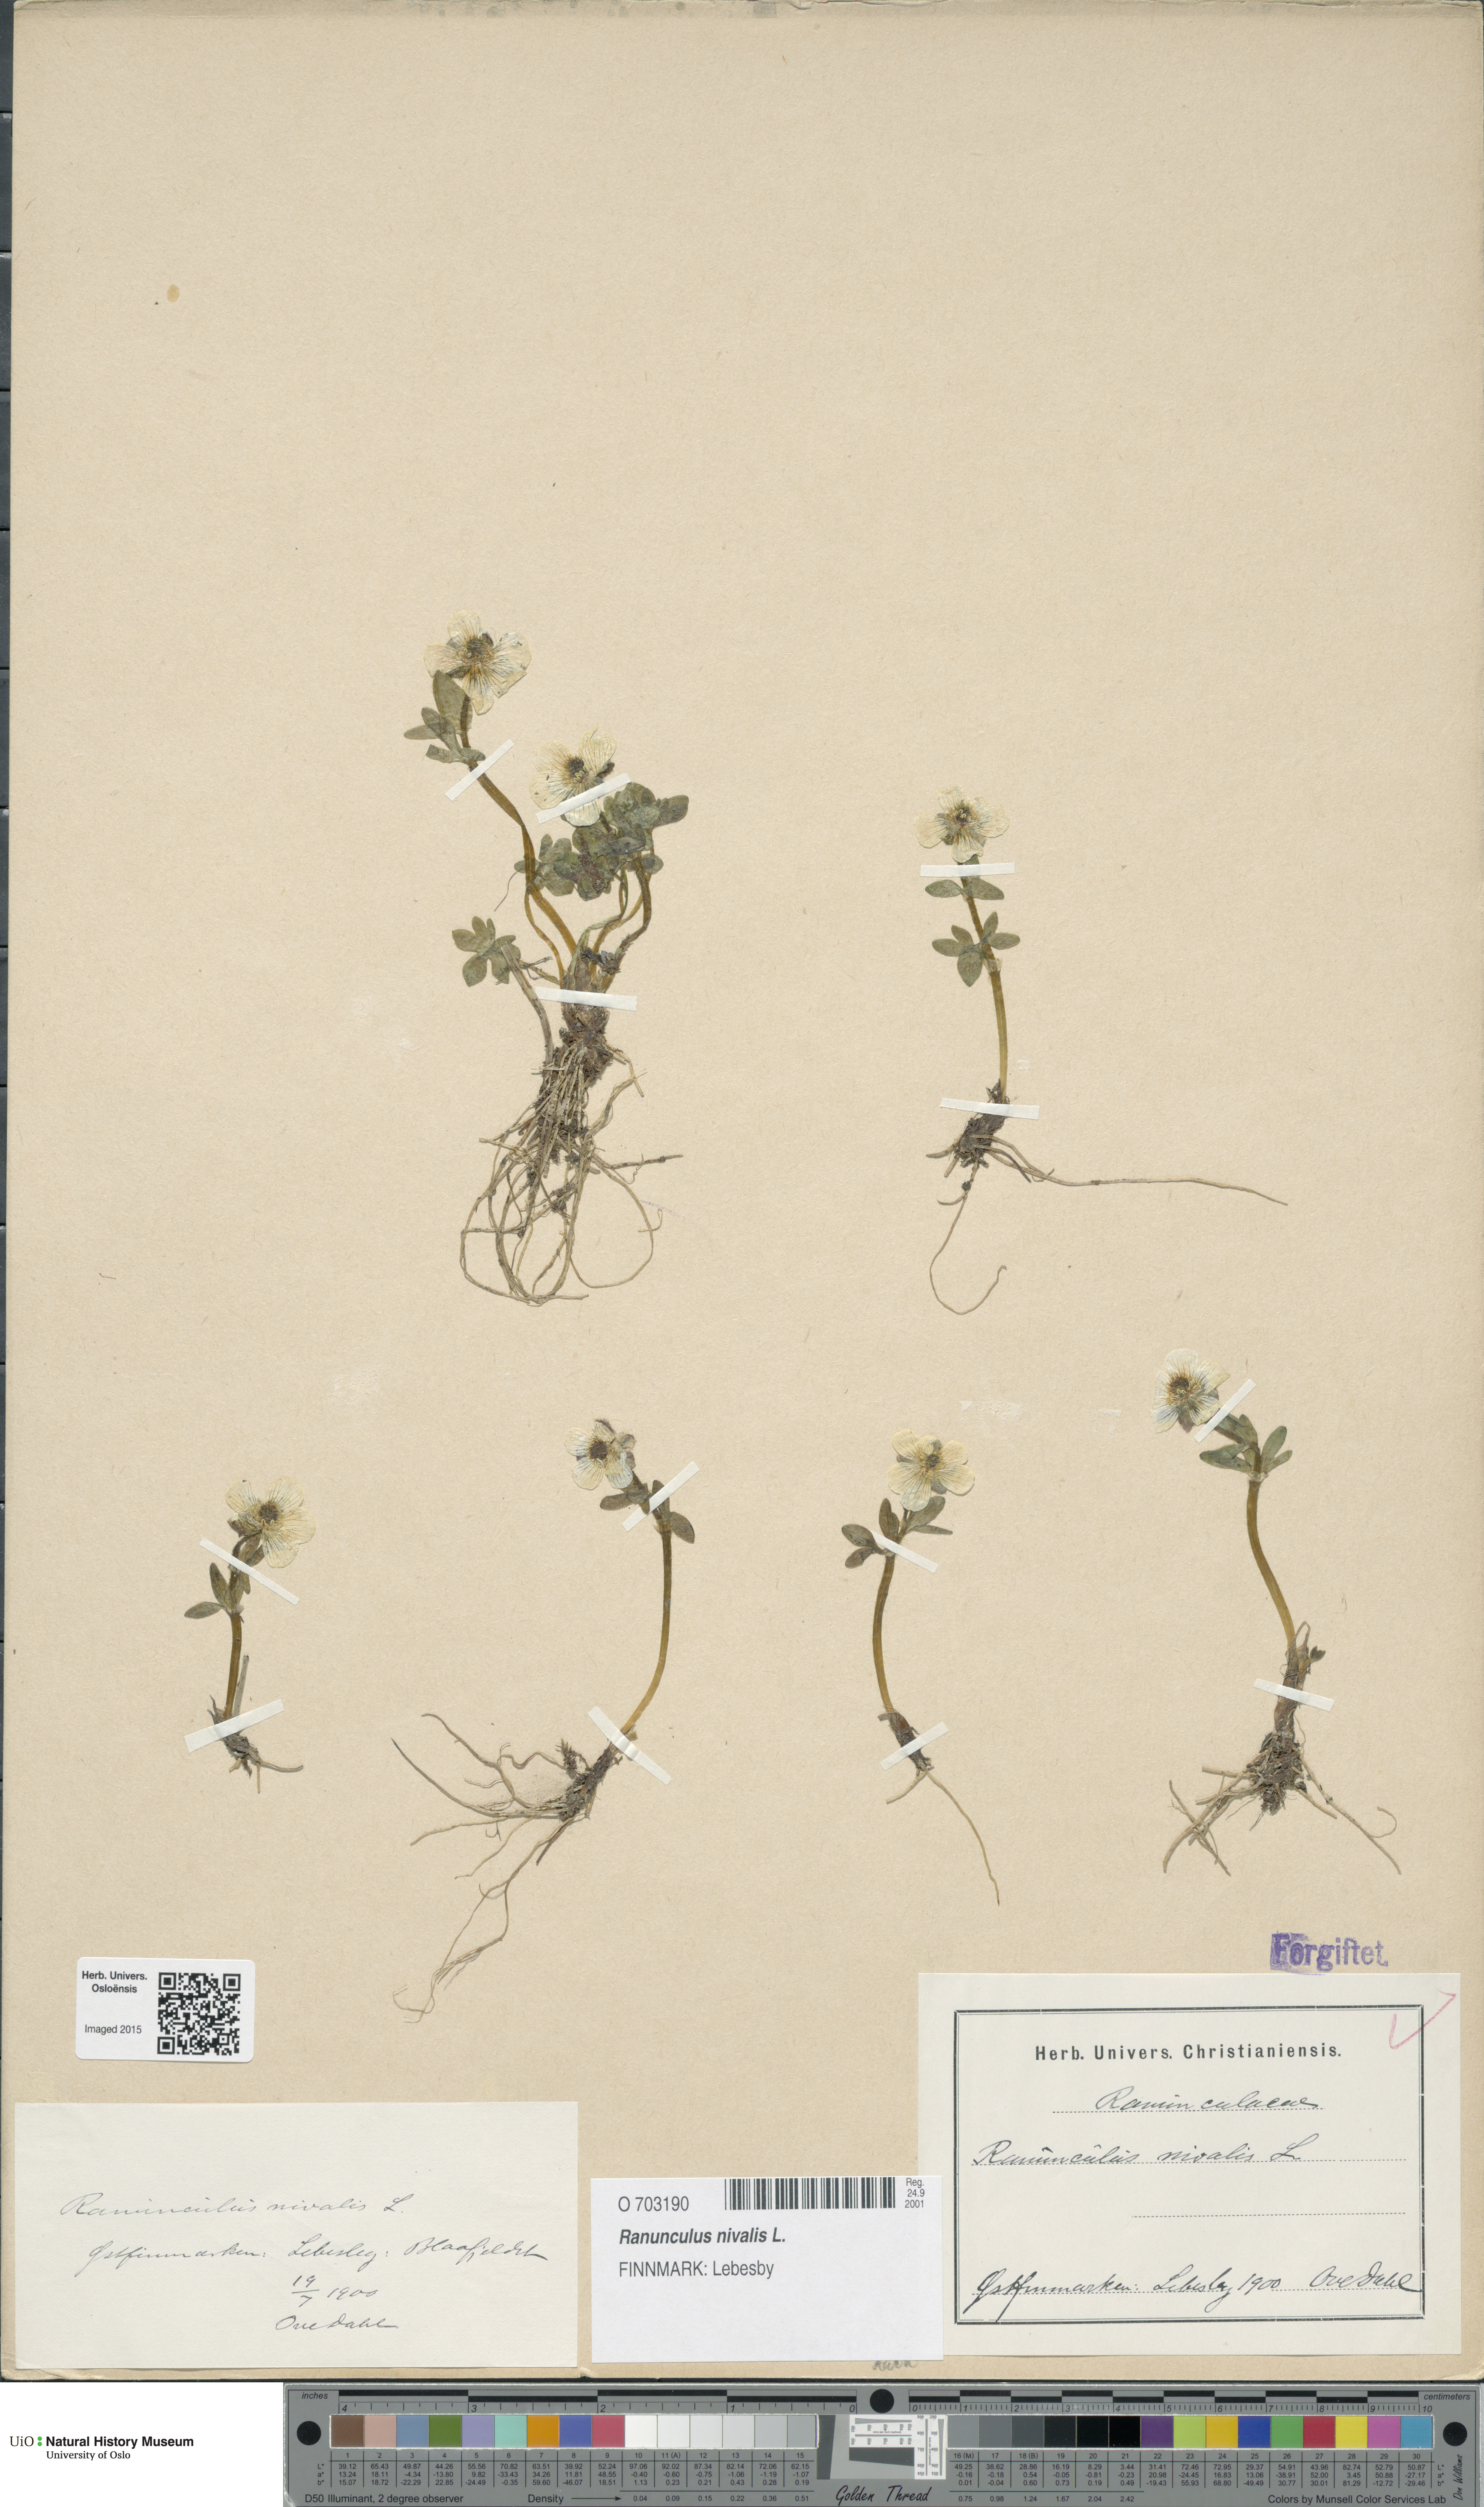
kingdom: Plantae
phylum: Tracheophyta
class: Magnoliopsida
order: Ranunculales
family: Ranunculaceae
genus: Ranunculus
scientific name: Ranunculus nivalis
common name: Snow buttercup
